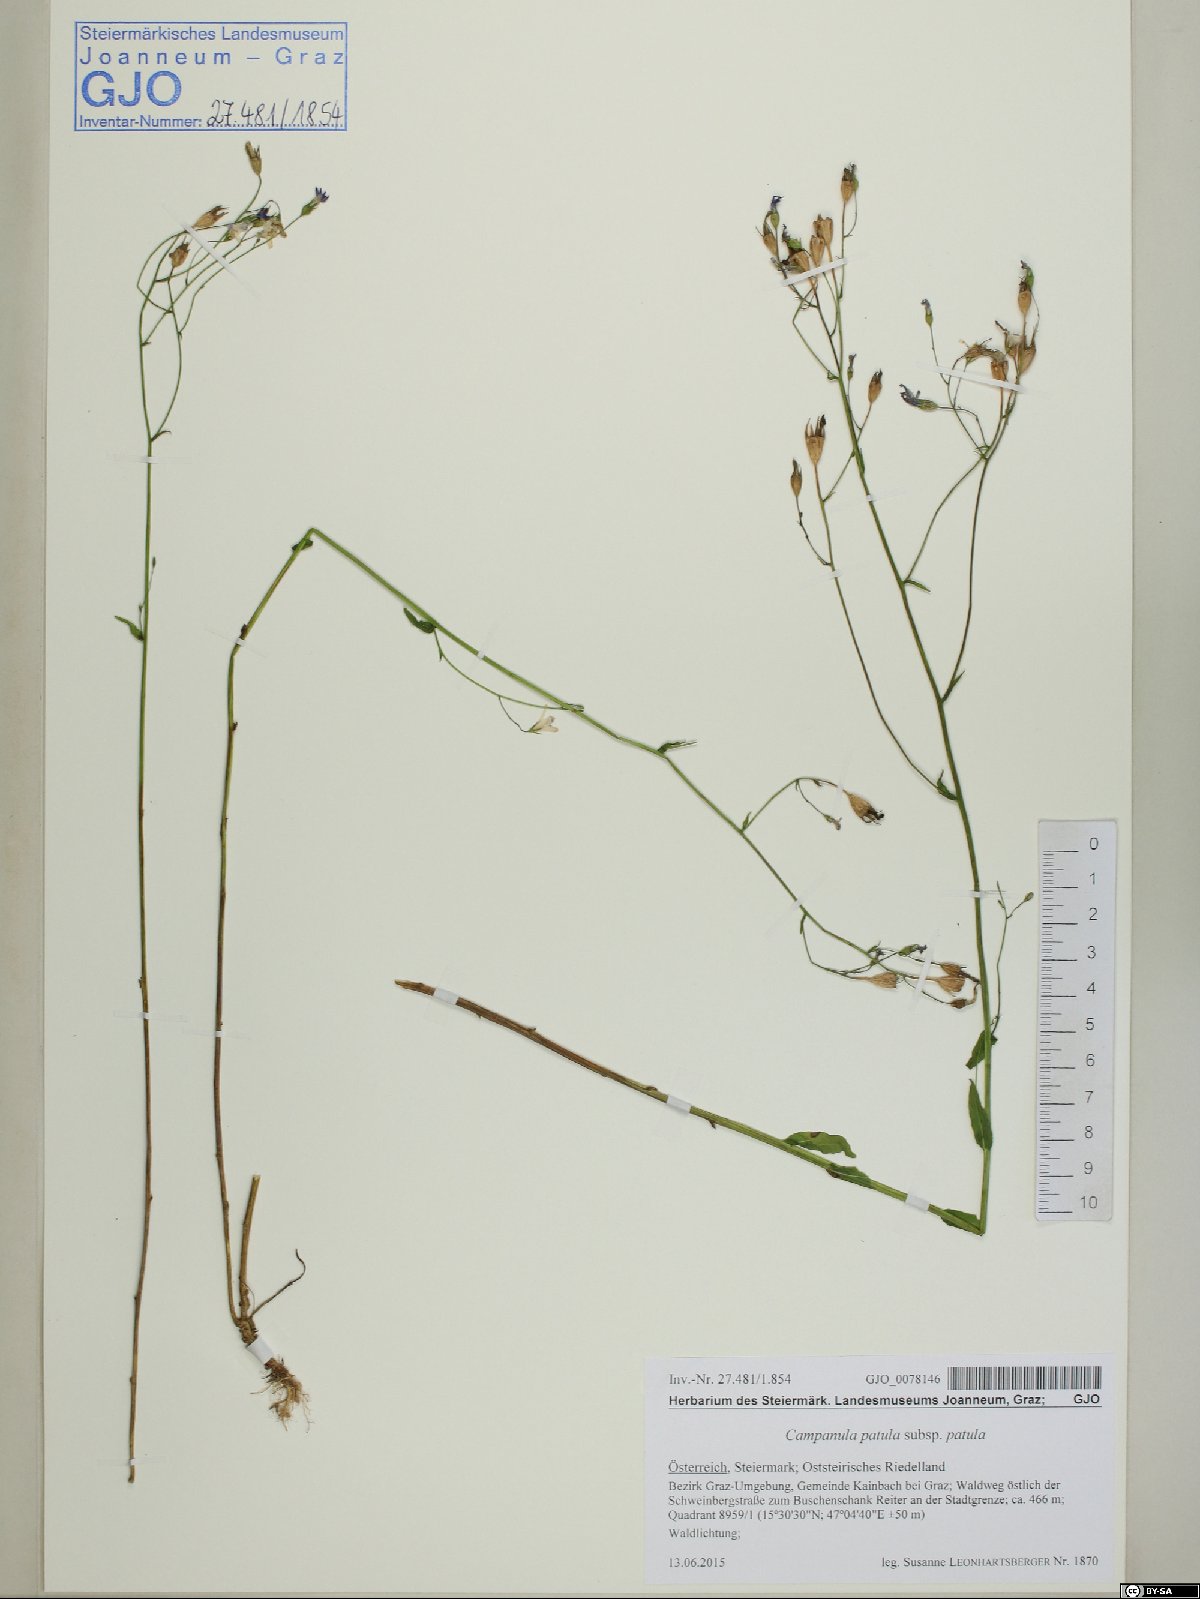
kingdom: Plantae
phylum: Tracheophyta
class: Magnoliopsida
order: Asterales
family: Campanulaceae
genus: Campanula
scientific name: Campanula patula
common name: Spreading bellflower
